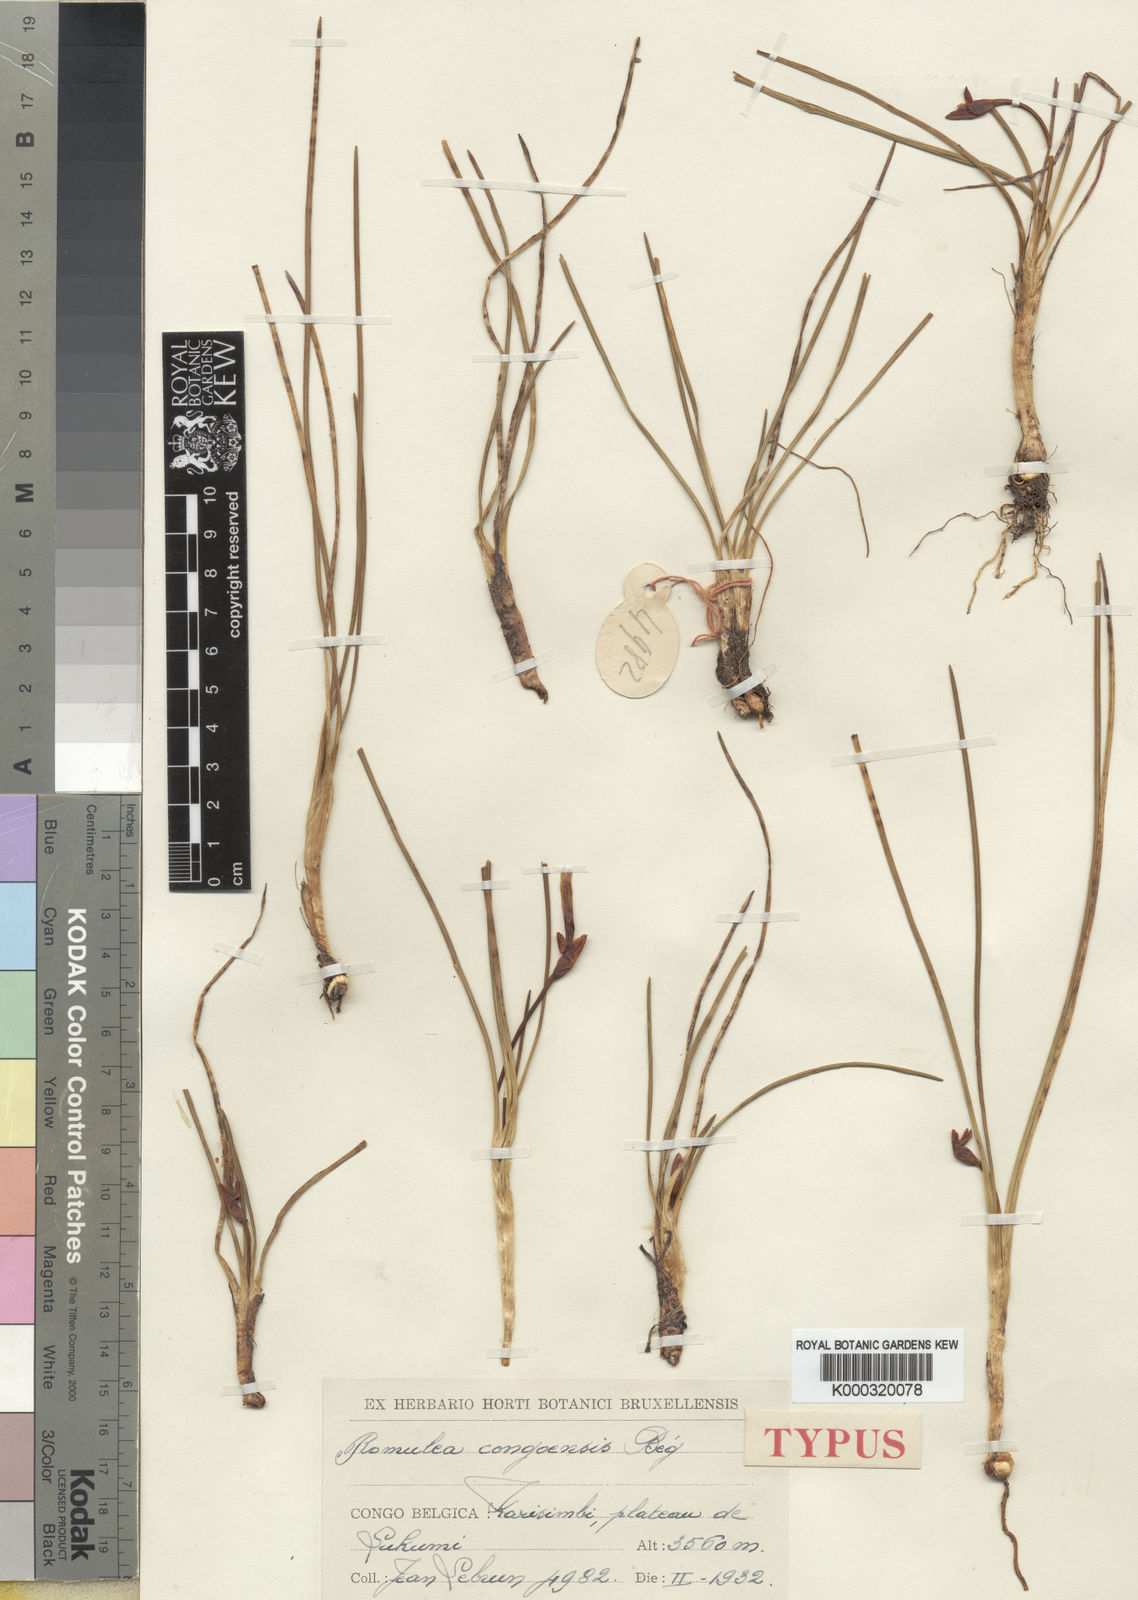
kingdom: Plantae
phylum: Tracheophyta
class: Liliopsida
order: Asparagales
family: Iridaceae
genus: Romulea
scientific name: Romulea
